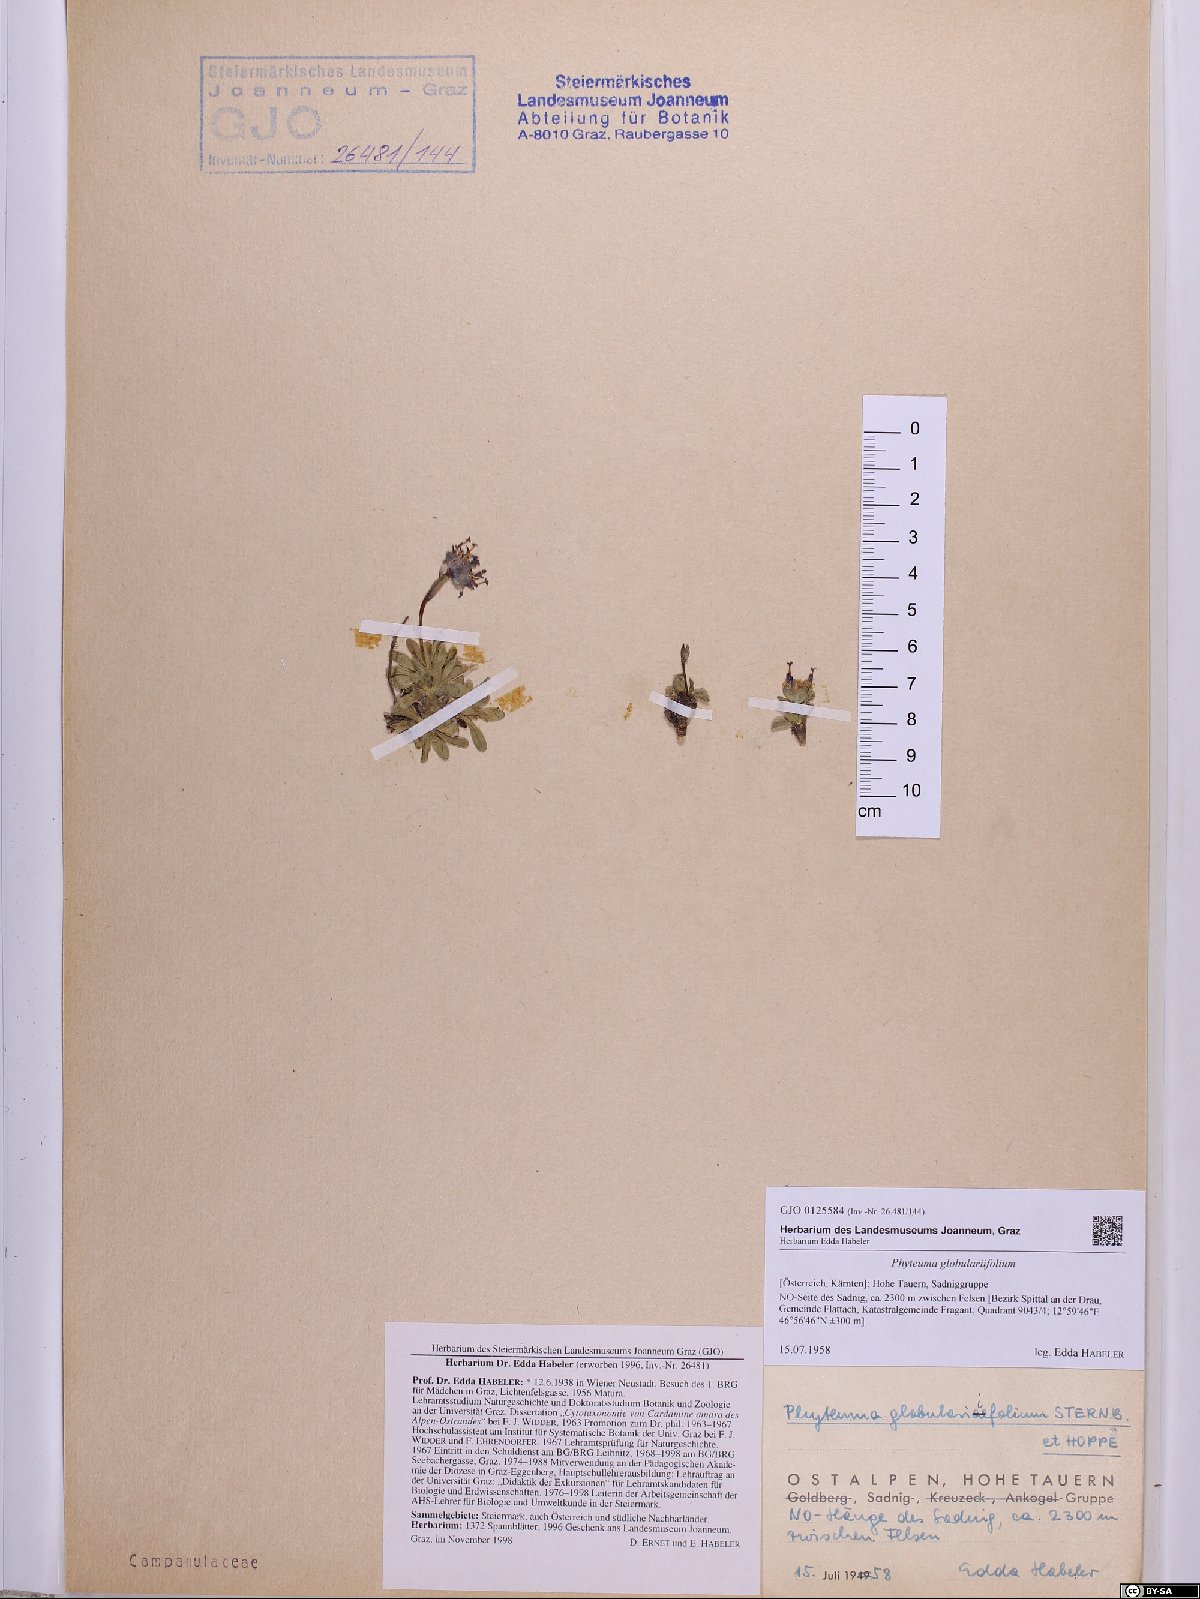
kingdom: Plantae
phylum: Tracheophyta
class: Magnoliopsida
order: Asterales
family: Campanulaceae
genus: Phyteuma
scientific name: Phyteuma globulariifolium
